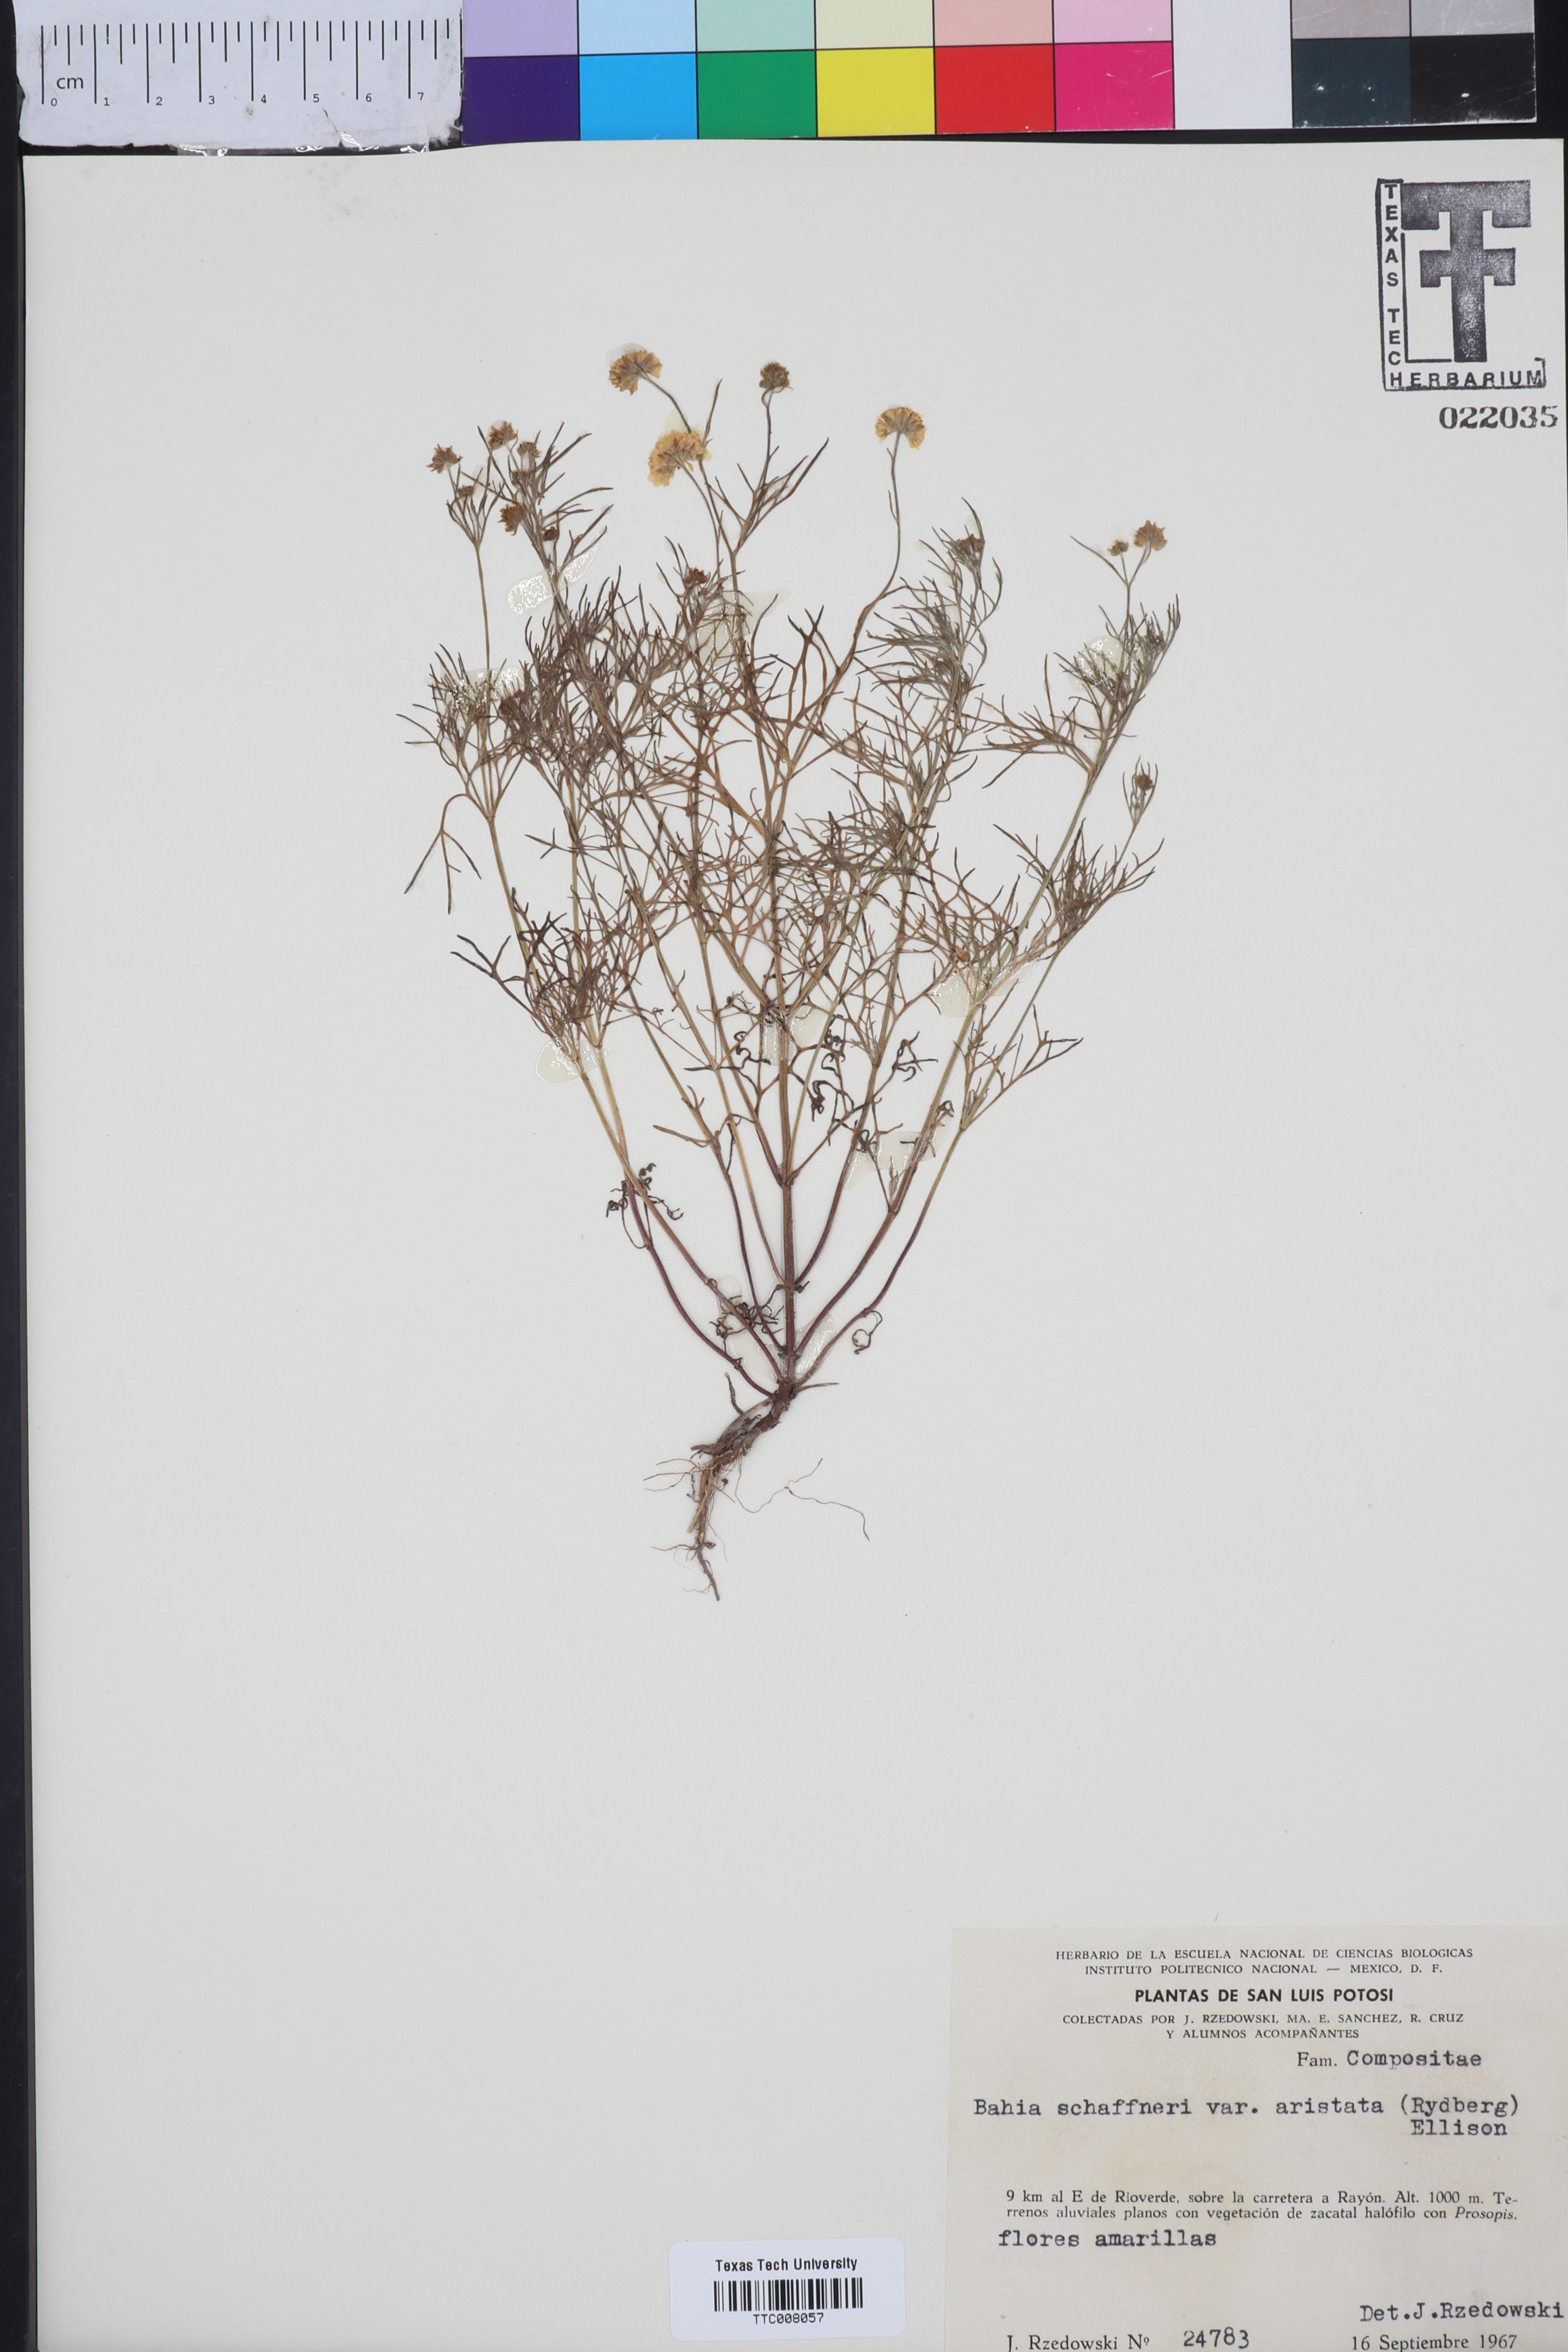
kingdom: Plantae
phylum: Tracheophyta
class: Magnoliopsida
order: Asterales
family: Asteraceae
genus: Picradeniopsis
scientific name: Picradeniopsis schaffneri
